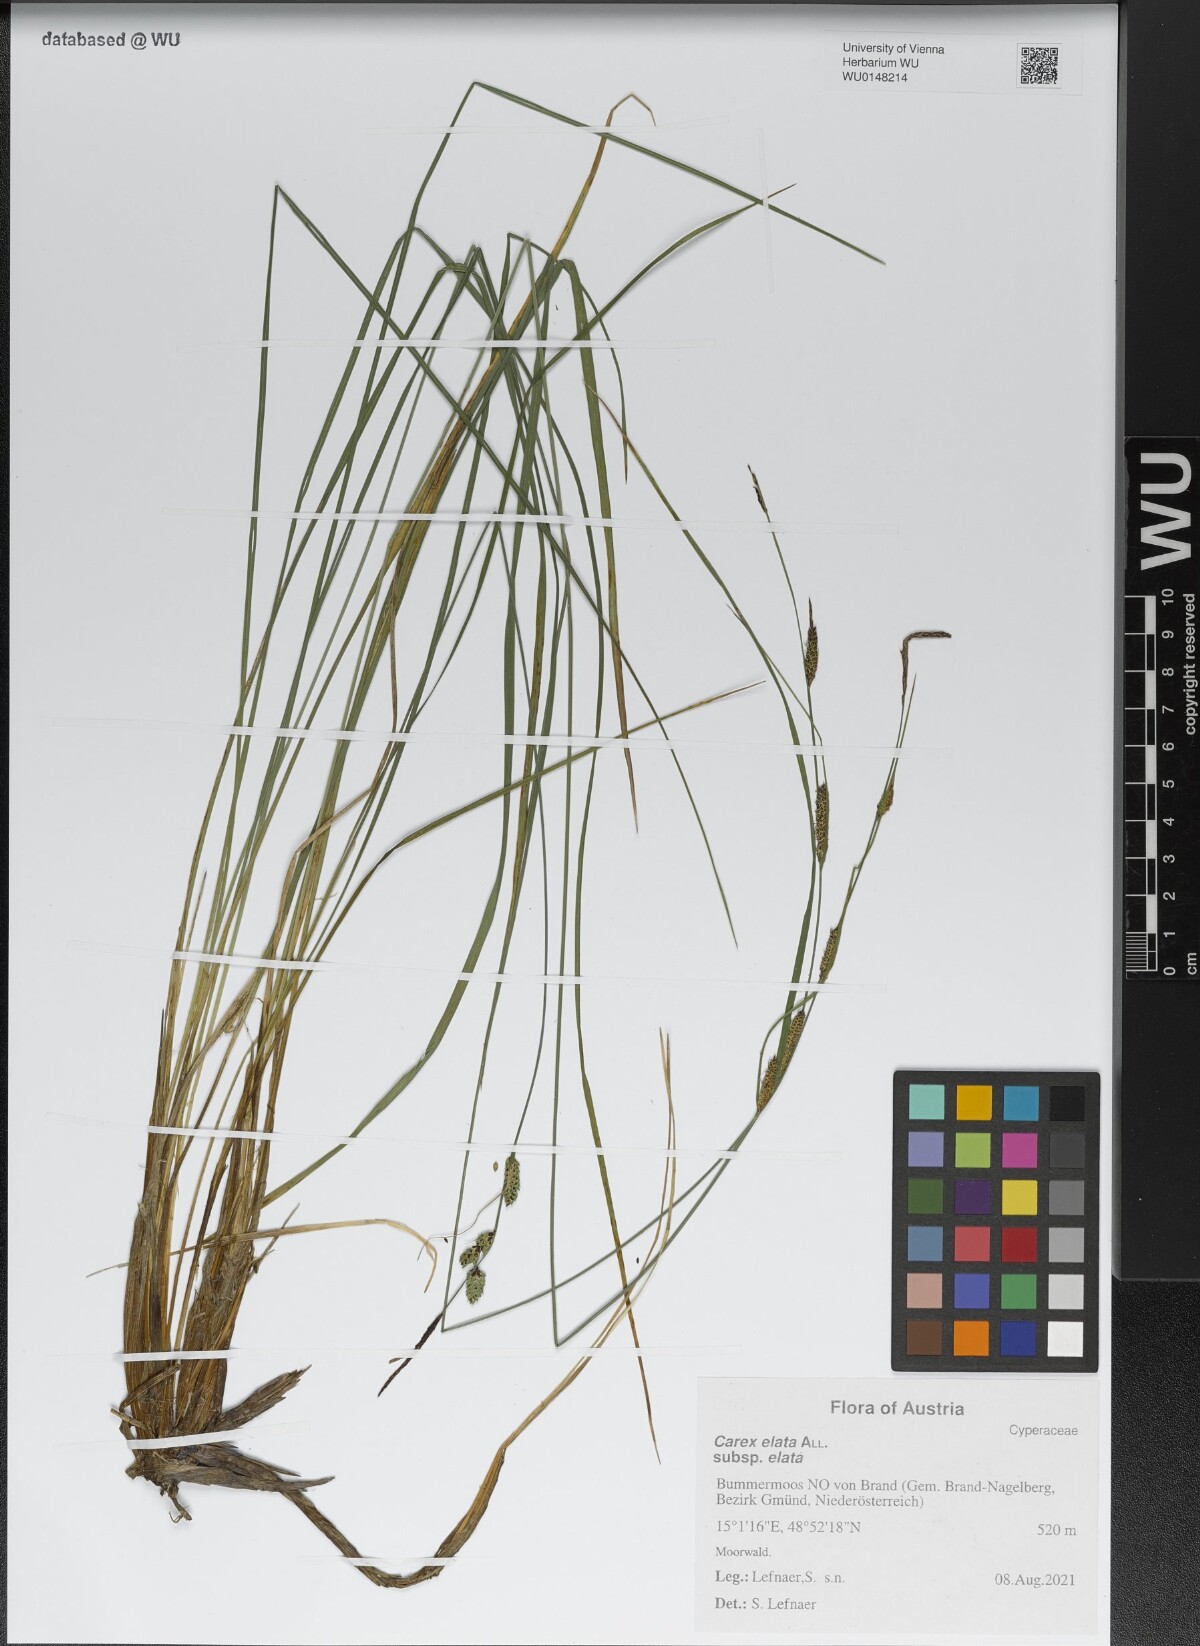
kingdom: Plantae
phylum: Tracheophyta
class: Liliopsida
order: Poales
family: Cyperaceae
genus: Carex
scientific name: Carex elata
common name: Tufted sedge
